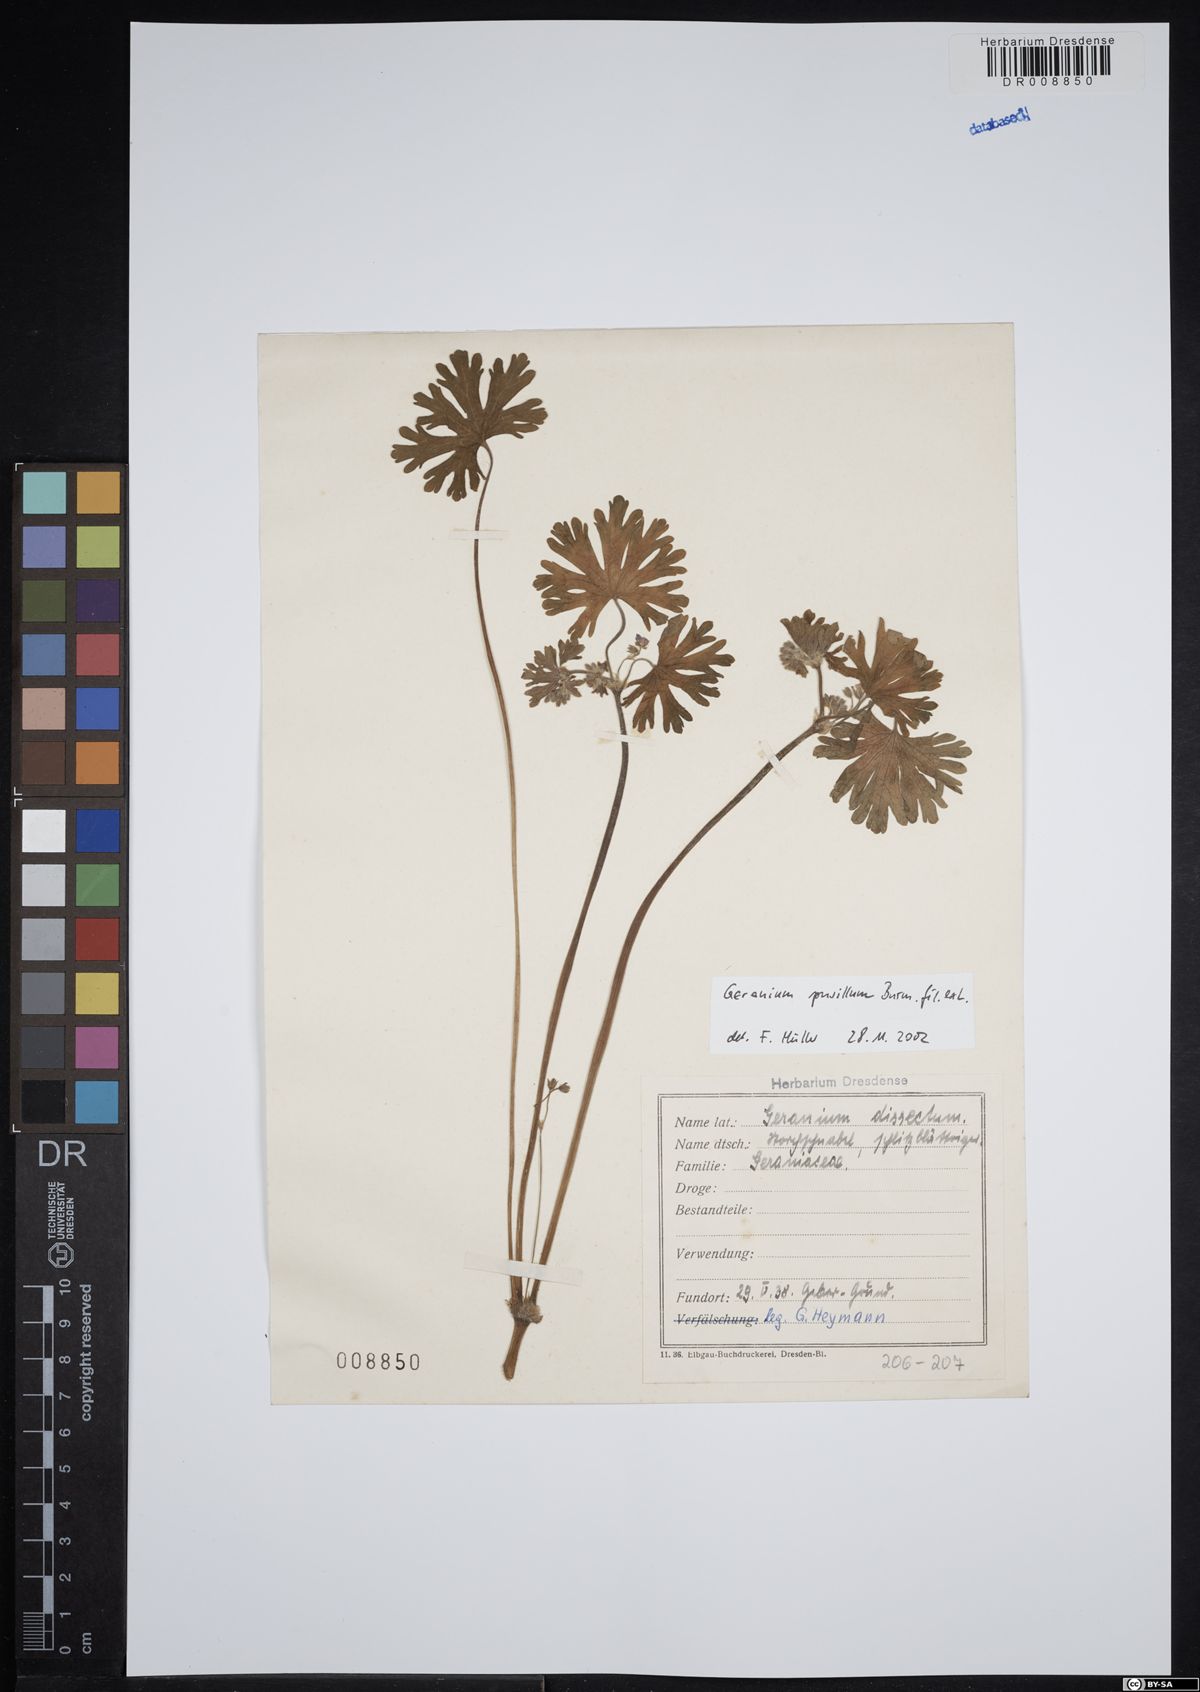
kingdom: Plantae
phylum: Tracheophyta
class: Magnoliopsida
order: Geraniales
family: Geraniaceae
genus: Geranium
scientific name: Geranium pusillum
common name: Small geranium
